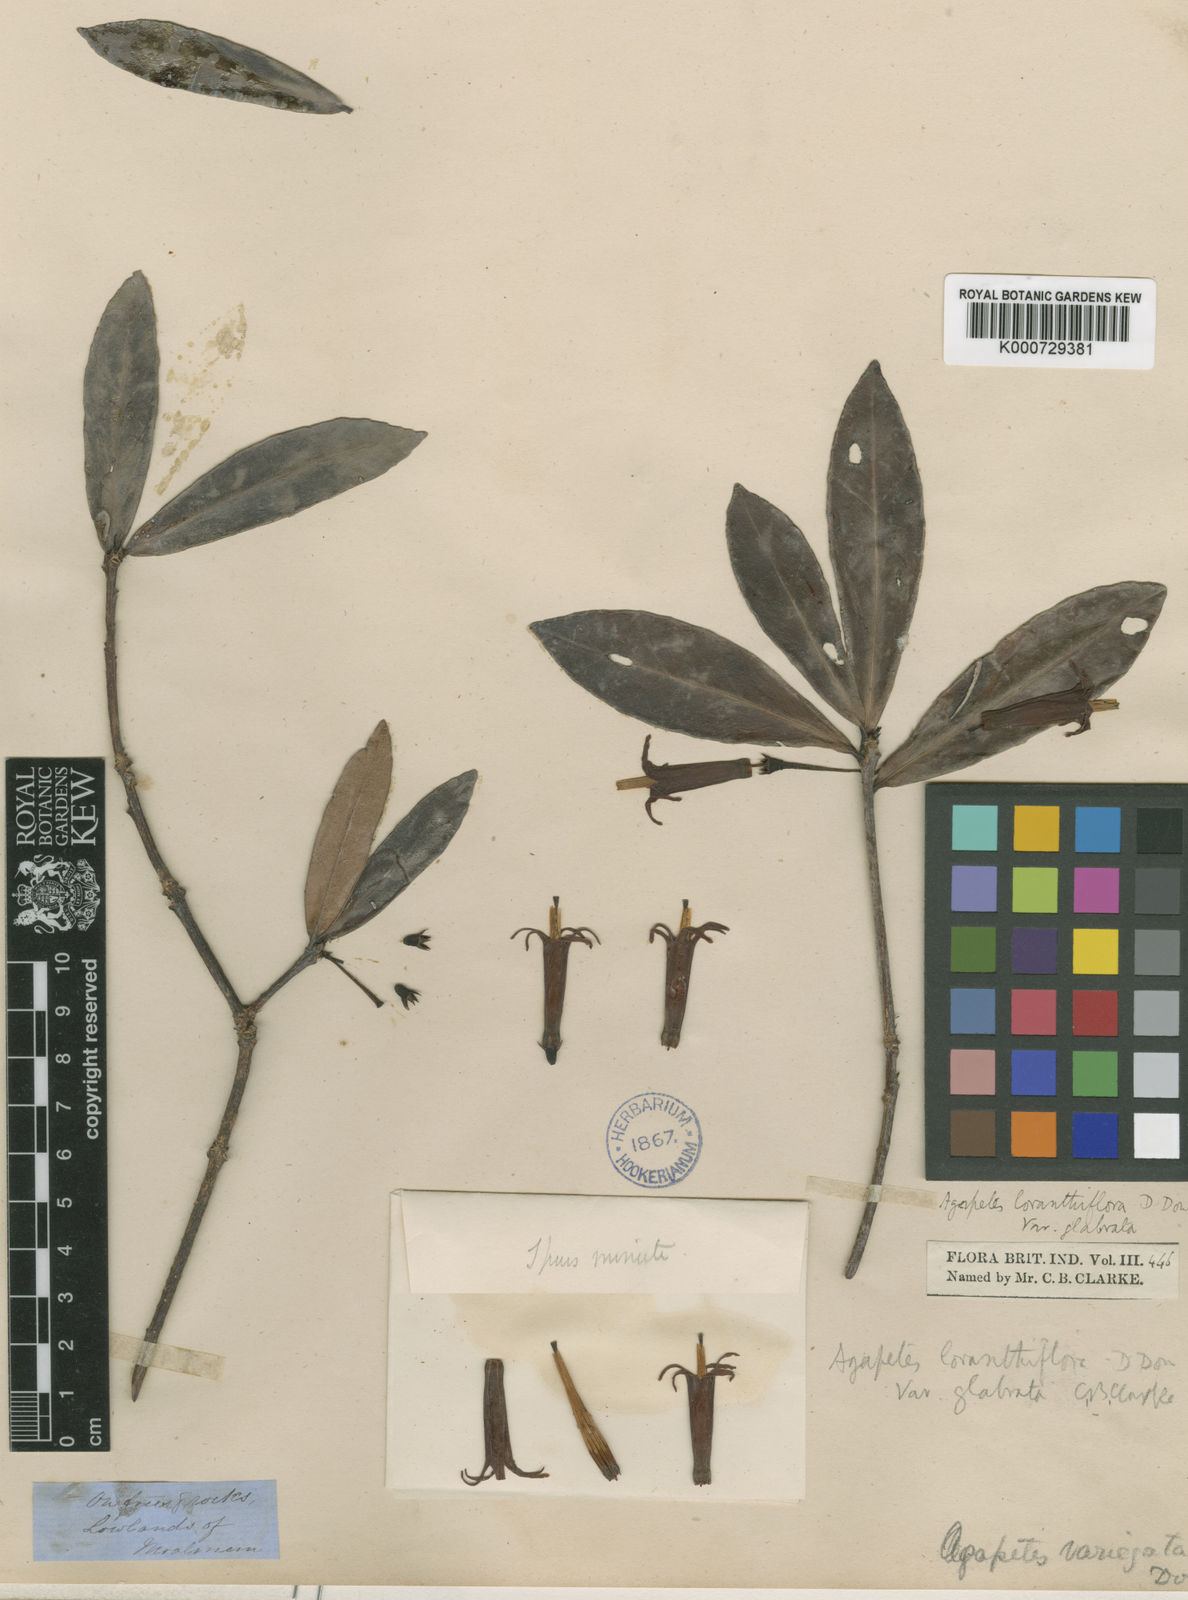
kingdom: Plantae
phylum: Tracheophyta
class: Magnoliopsida
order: Ericales
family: Ericaceae
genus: Agapetes
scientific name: Agapetes loranthiflora
